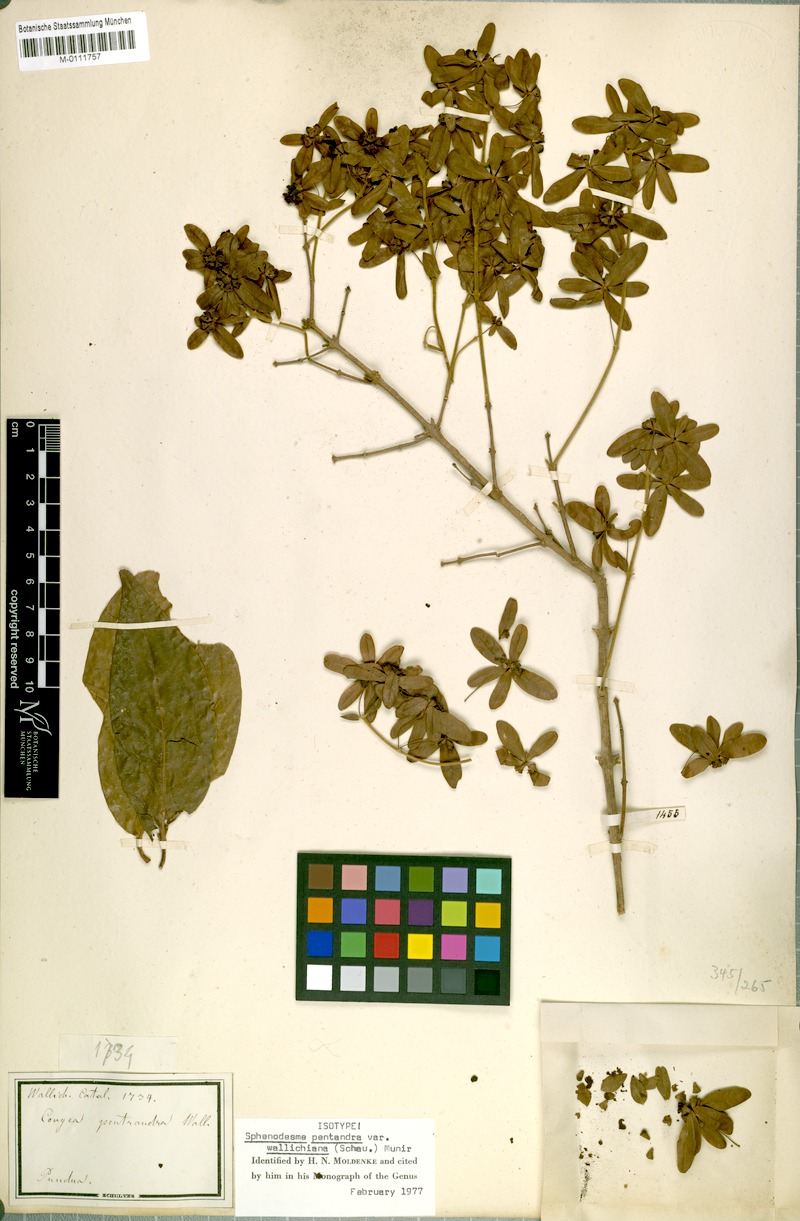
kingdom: Plantae
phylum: Tracheophyta
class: Magnoliopsida
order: Lamiales
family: Lamiaceae
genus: Sphenodesme
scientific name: Sphenodesme pentandra
